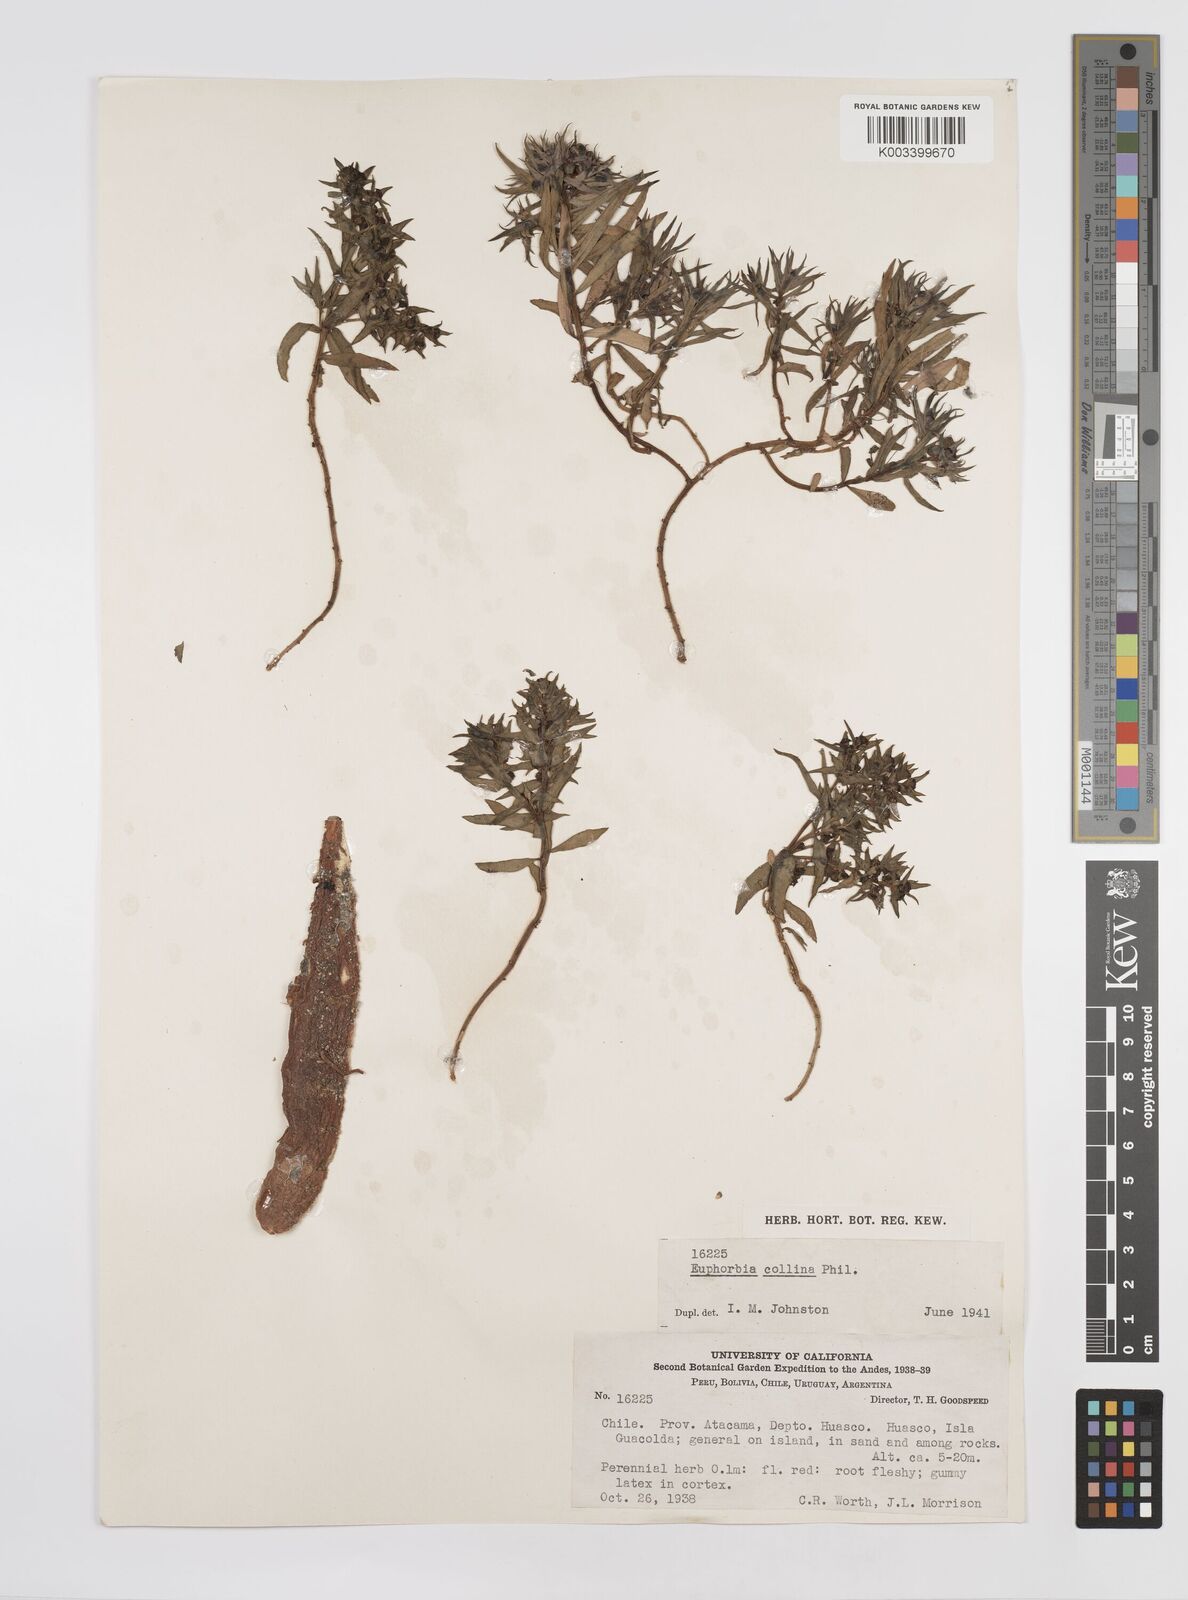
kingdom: Plantae
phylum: Tracheophyta
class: Magnoliopsida
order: Malpighiales
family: Euphorbiaceae
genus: Euphorbia
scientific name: Euphorbia
